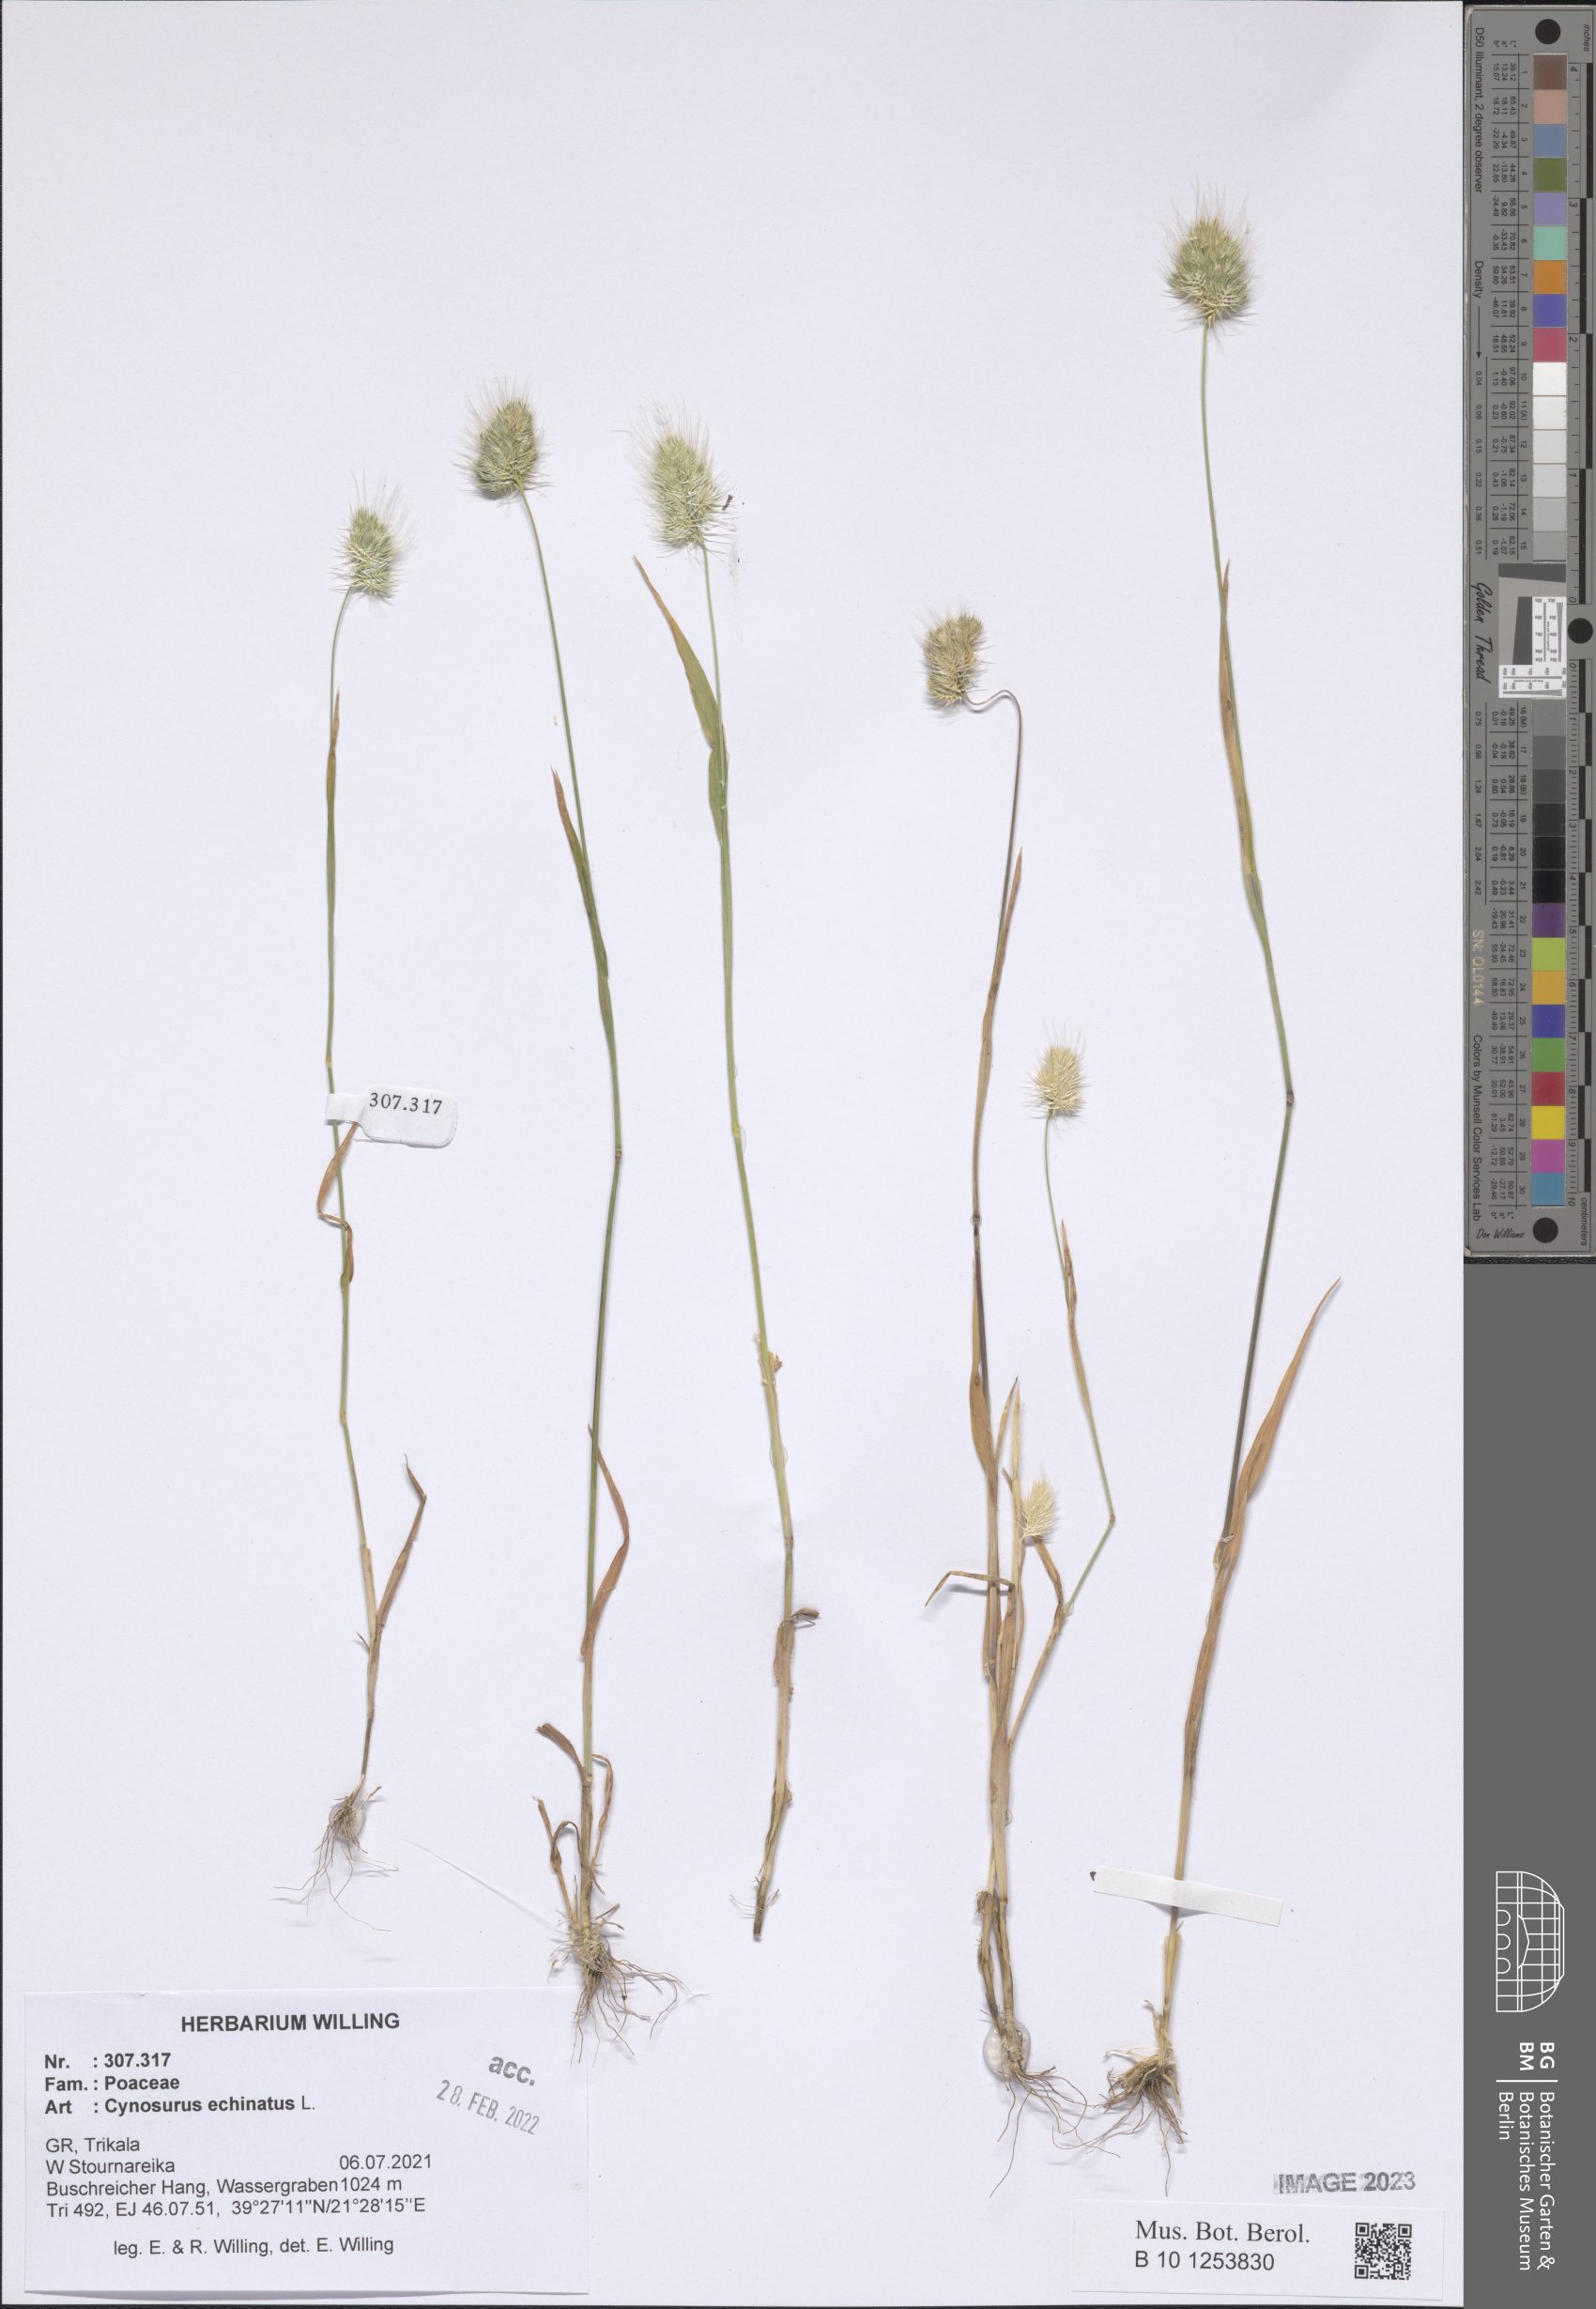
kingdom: Plantae
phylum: Tracheophyta
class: Liliopsida
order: Poales
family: Poaceae
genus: Cynosurus
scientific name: Cynosurus echinatus
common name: Rough dog's-tail
